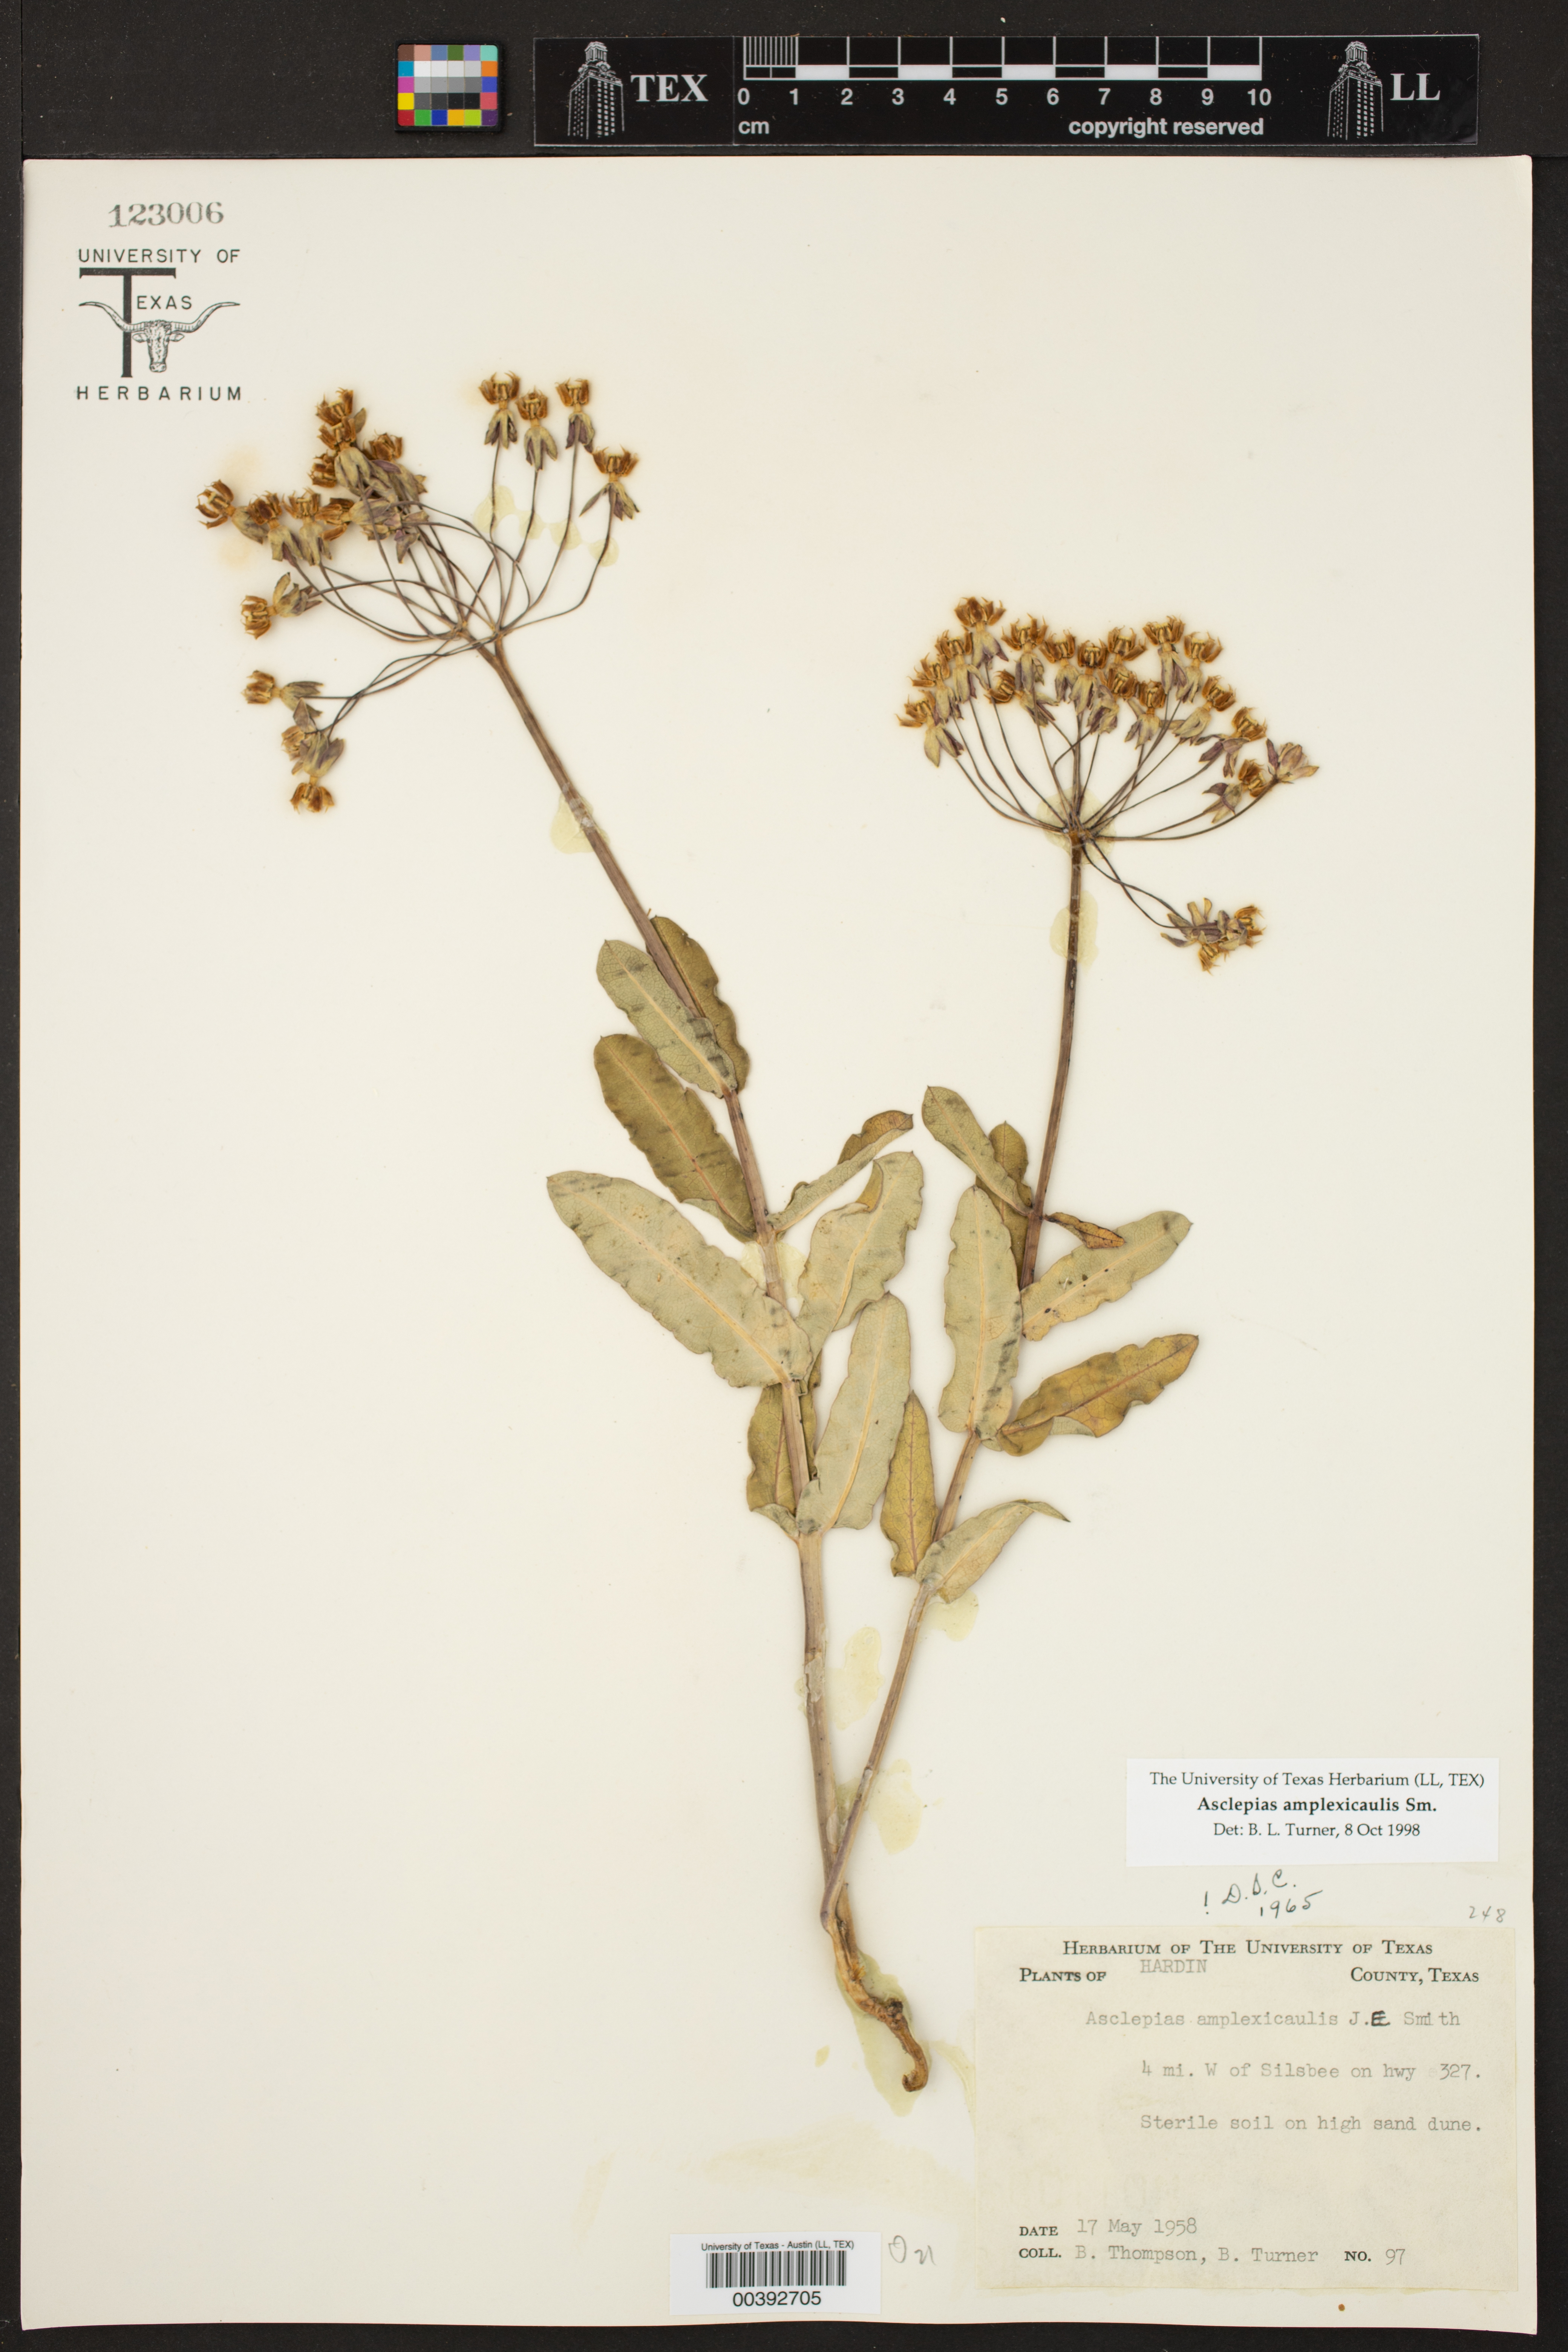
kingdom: Plantae
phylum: Tracheophyta
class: Magnoliopsida
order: Gentianales
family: Apocynaceae
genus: Asclepias
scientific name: Asclepias amplexicaulis
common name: Blunt-leaf milkweed
